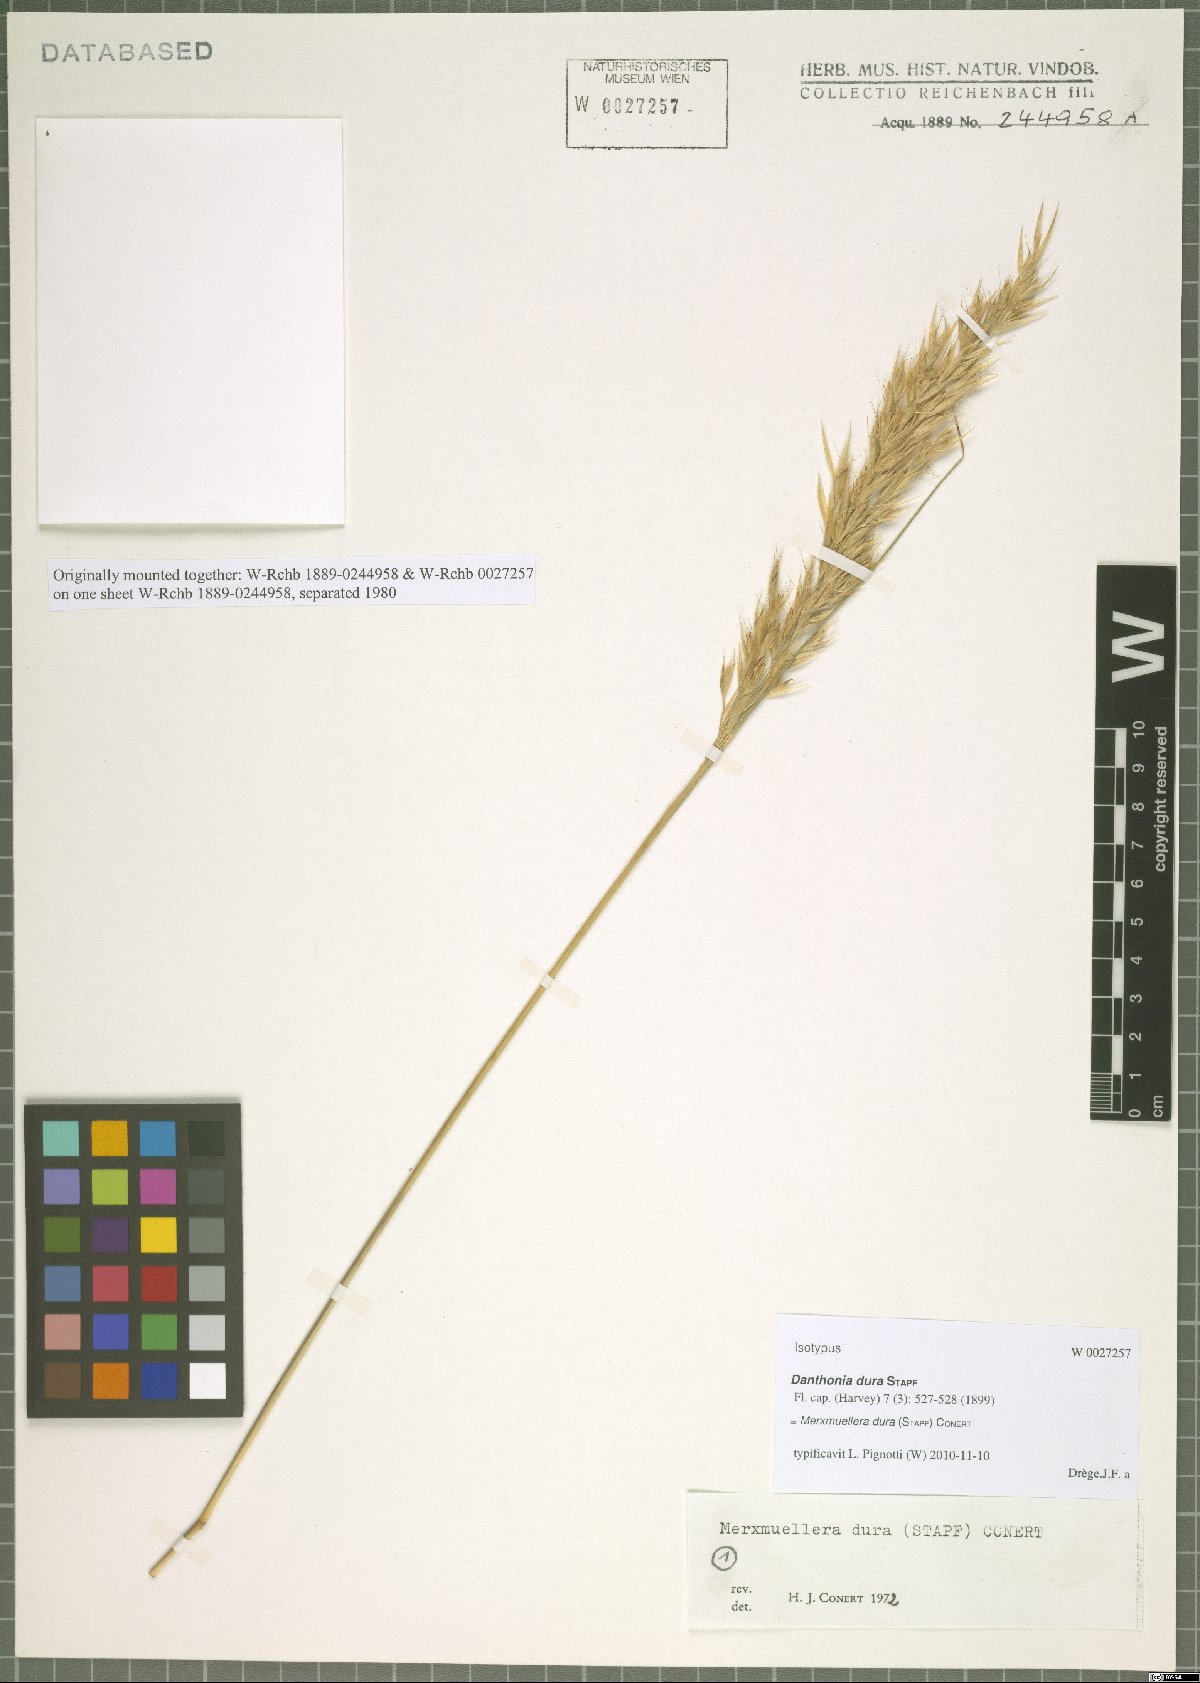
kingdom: Plantae
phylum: Tracheophyta
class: Liliopsida
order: Poales
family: Poaceae
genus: Tenaxia
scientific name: Tenaxia dura
